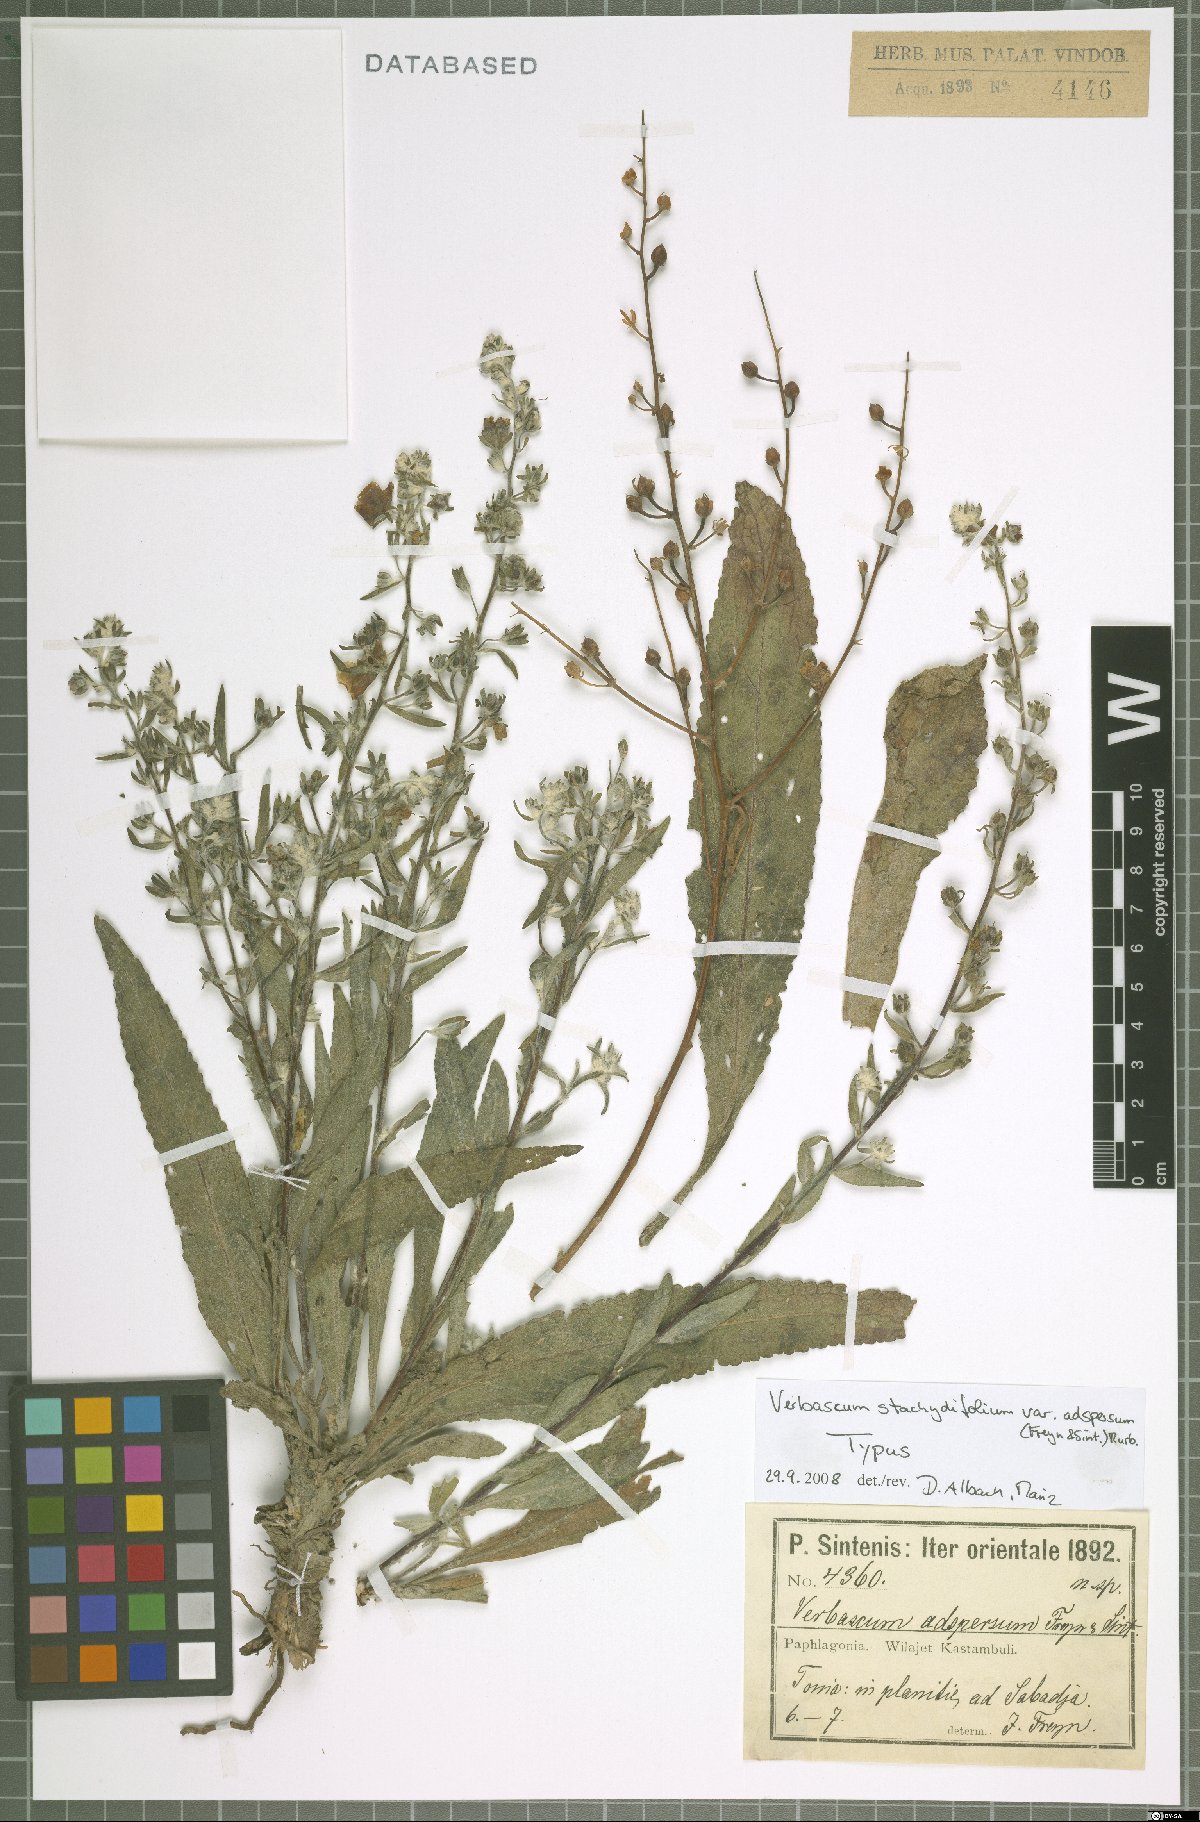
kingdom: Plantae
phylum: Tracheophyta
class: Magnoliopsida
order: Lamiales
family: Scrophulariaceae
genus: Verbascum
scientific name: Verbascum stachydifolium
